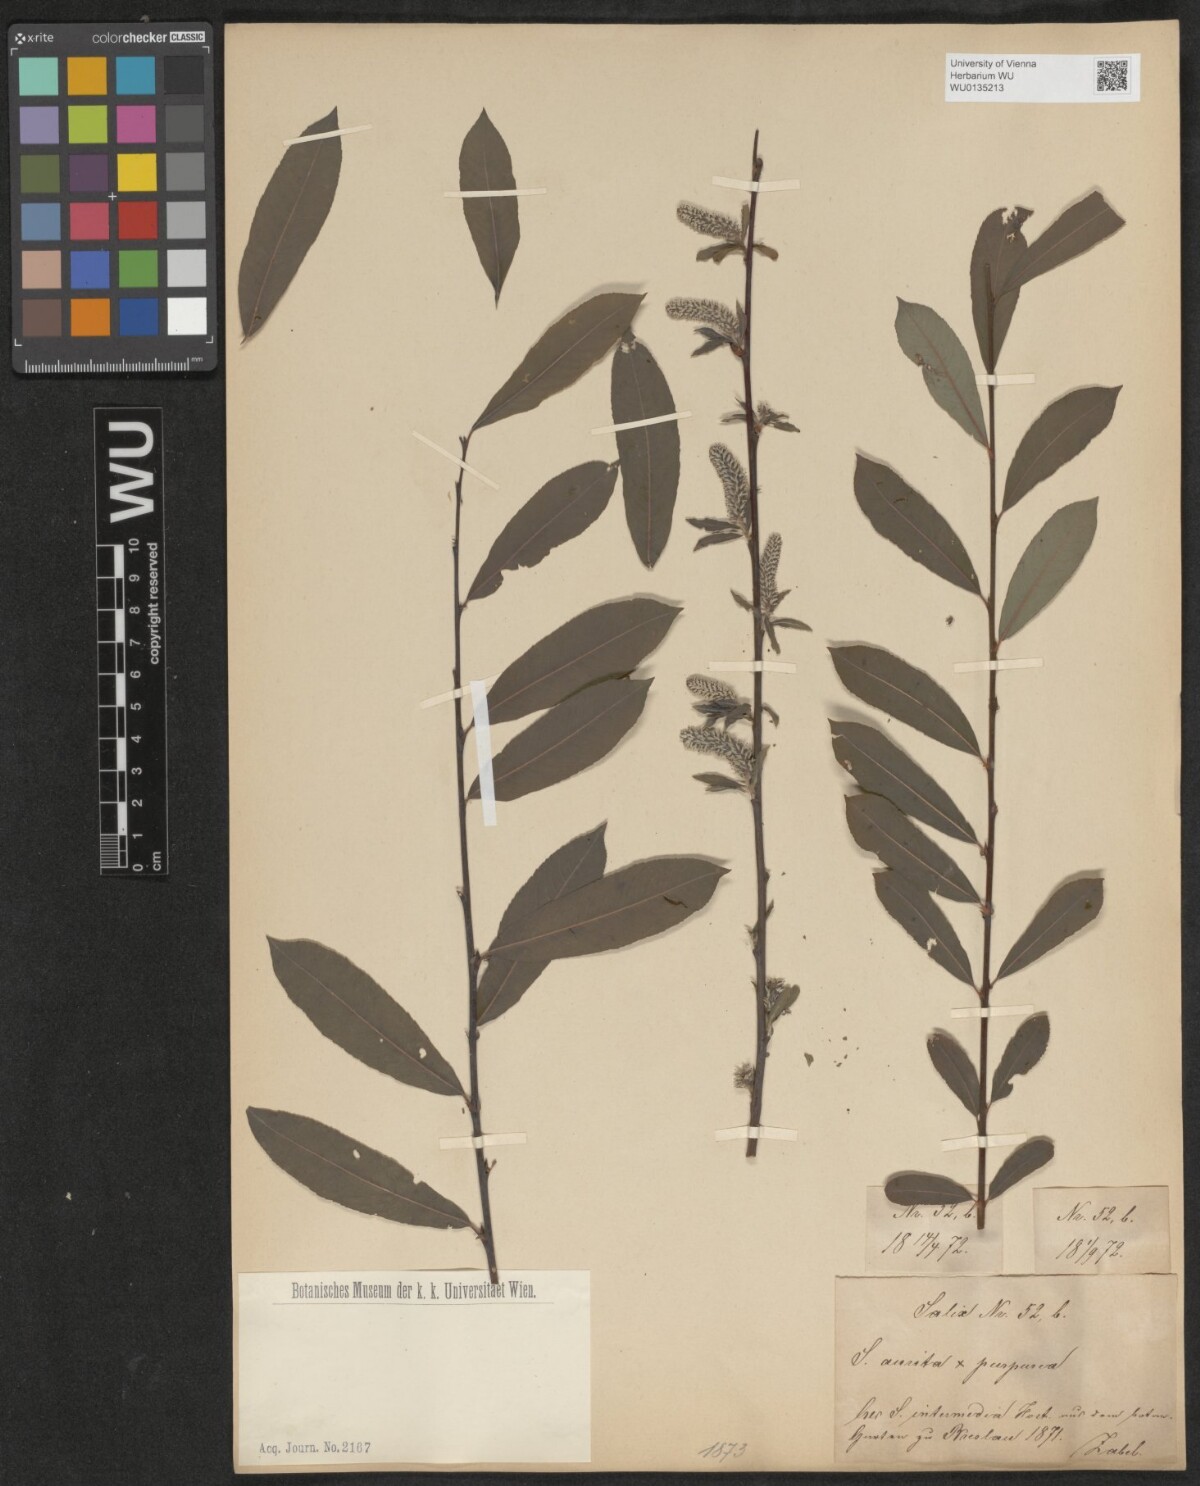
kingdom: Plantae
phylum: Tracheophyta
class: Magnoliopsida
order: Malpighiales
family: Salicaceae
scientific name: Salicaceae
